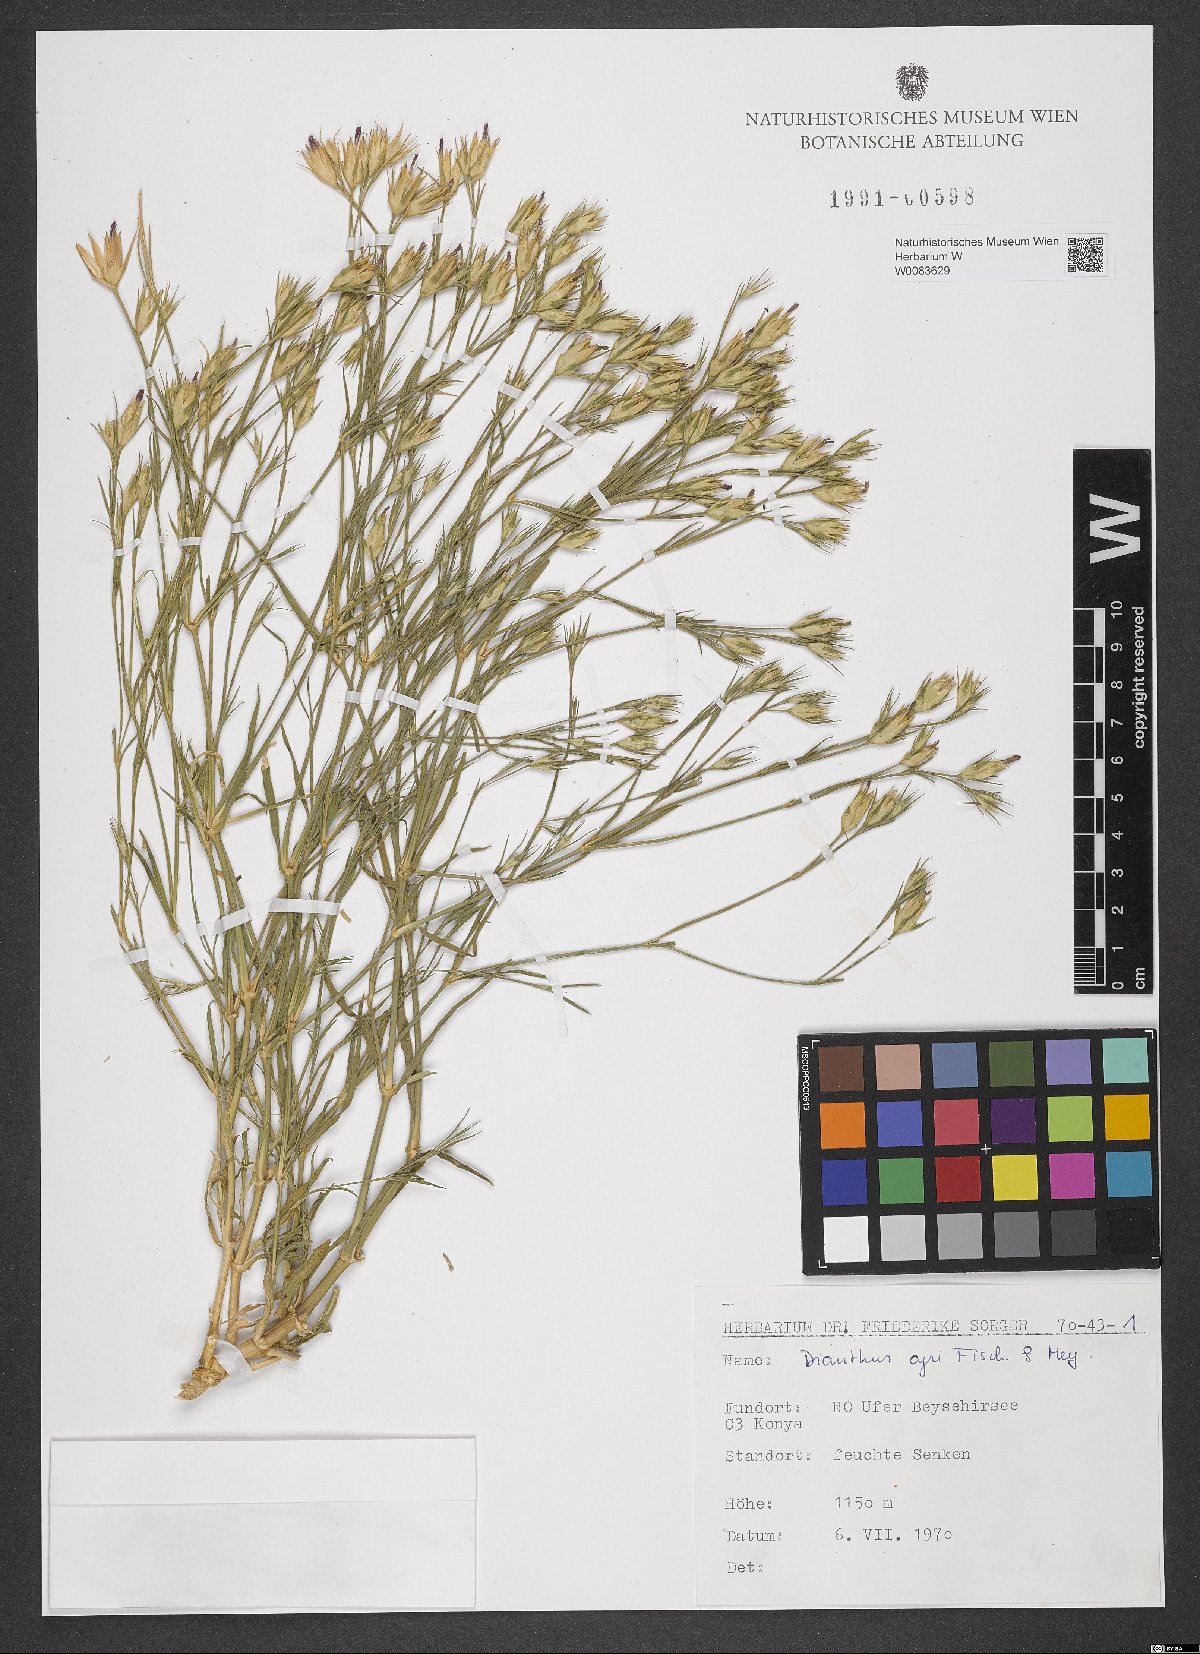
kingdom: Plantae
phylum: Tracheophyta
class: Magnoliopsida
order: Caryophyllales
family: Caryophyllaceae
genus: Dianthus
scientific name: Dianthus cyri
